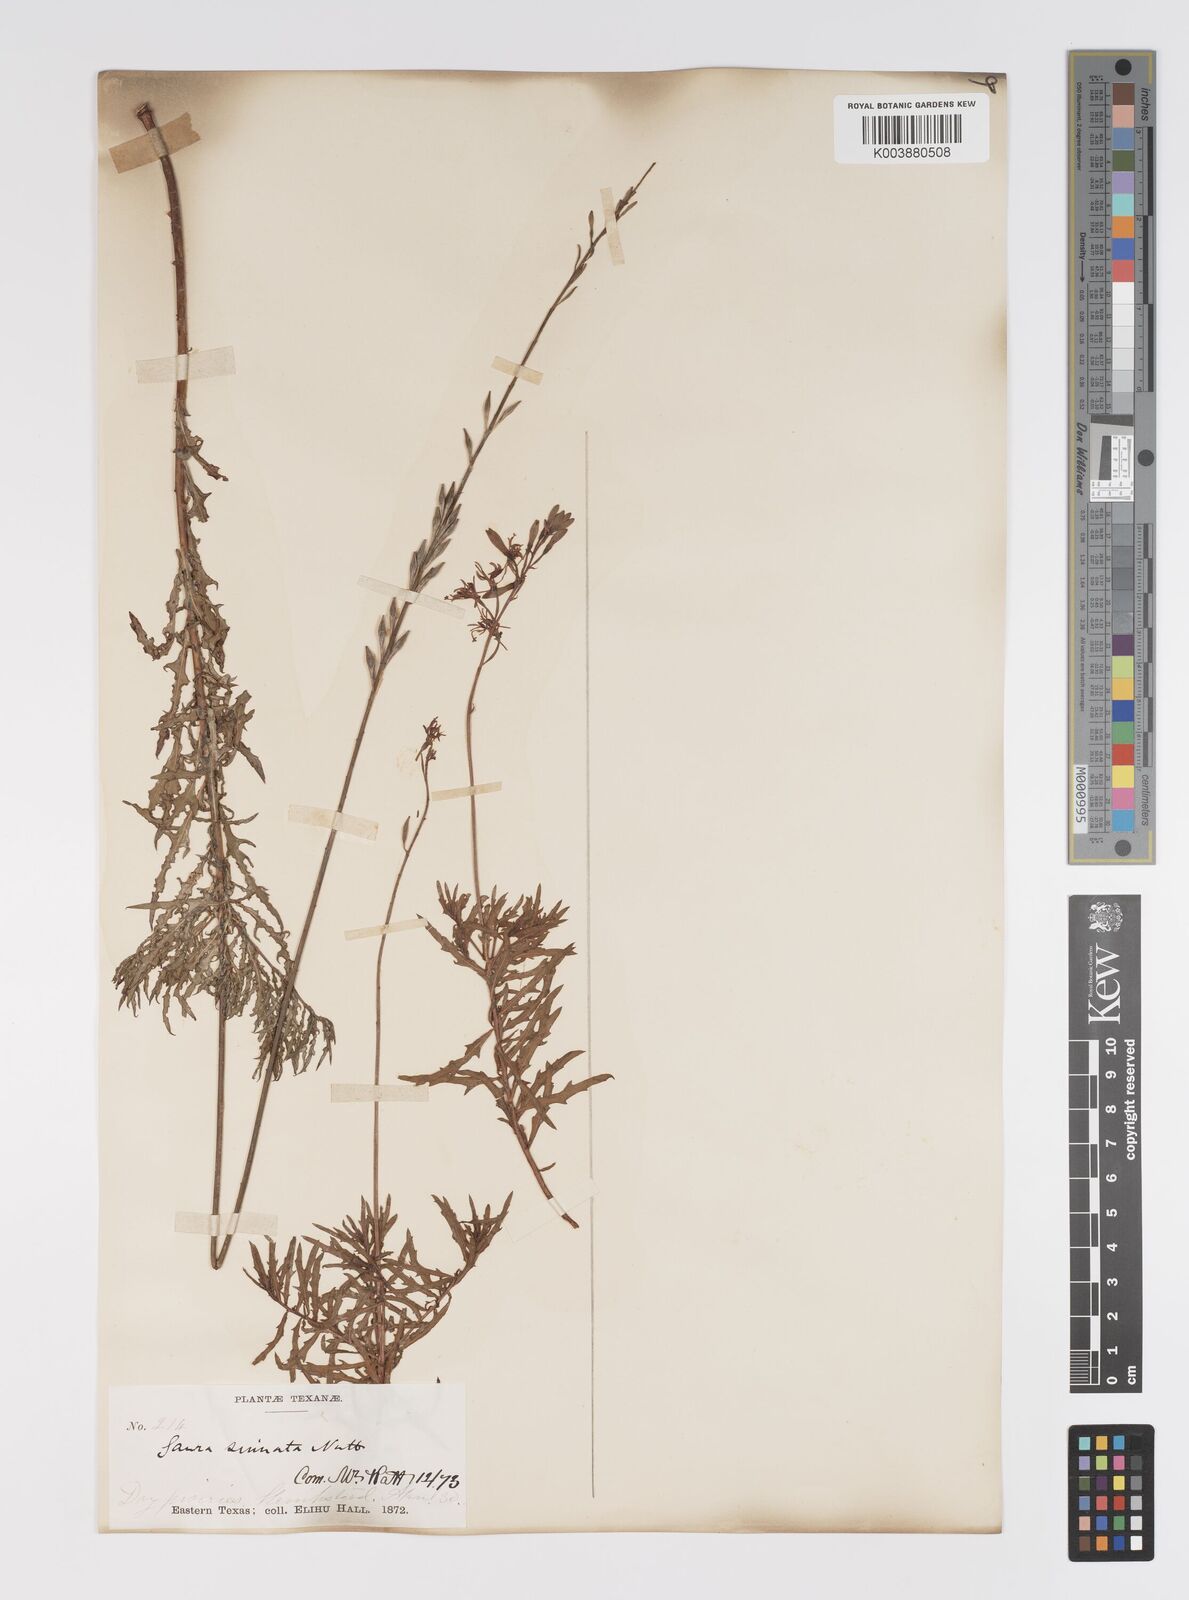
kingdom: Plantae
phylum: Tracheophyta
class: Magnoliopsida
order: Myrtales
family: Onagraceae
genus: Oenothera
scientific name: Oenothera sinuosa
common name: Wavyleaf beeblossom
